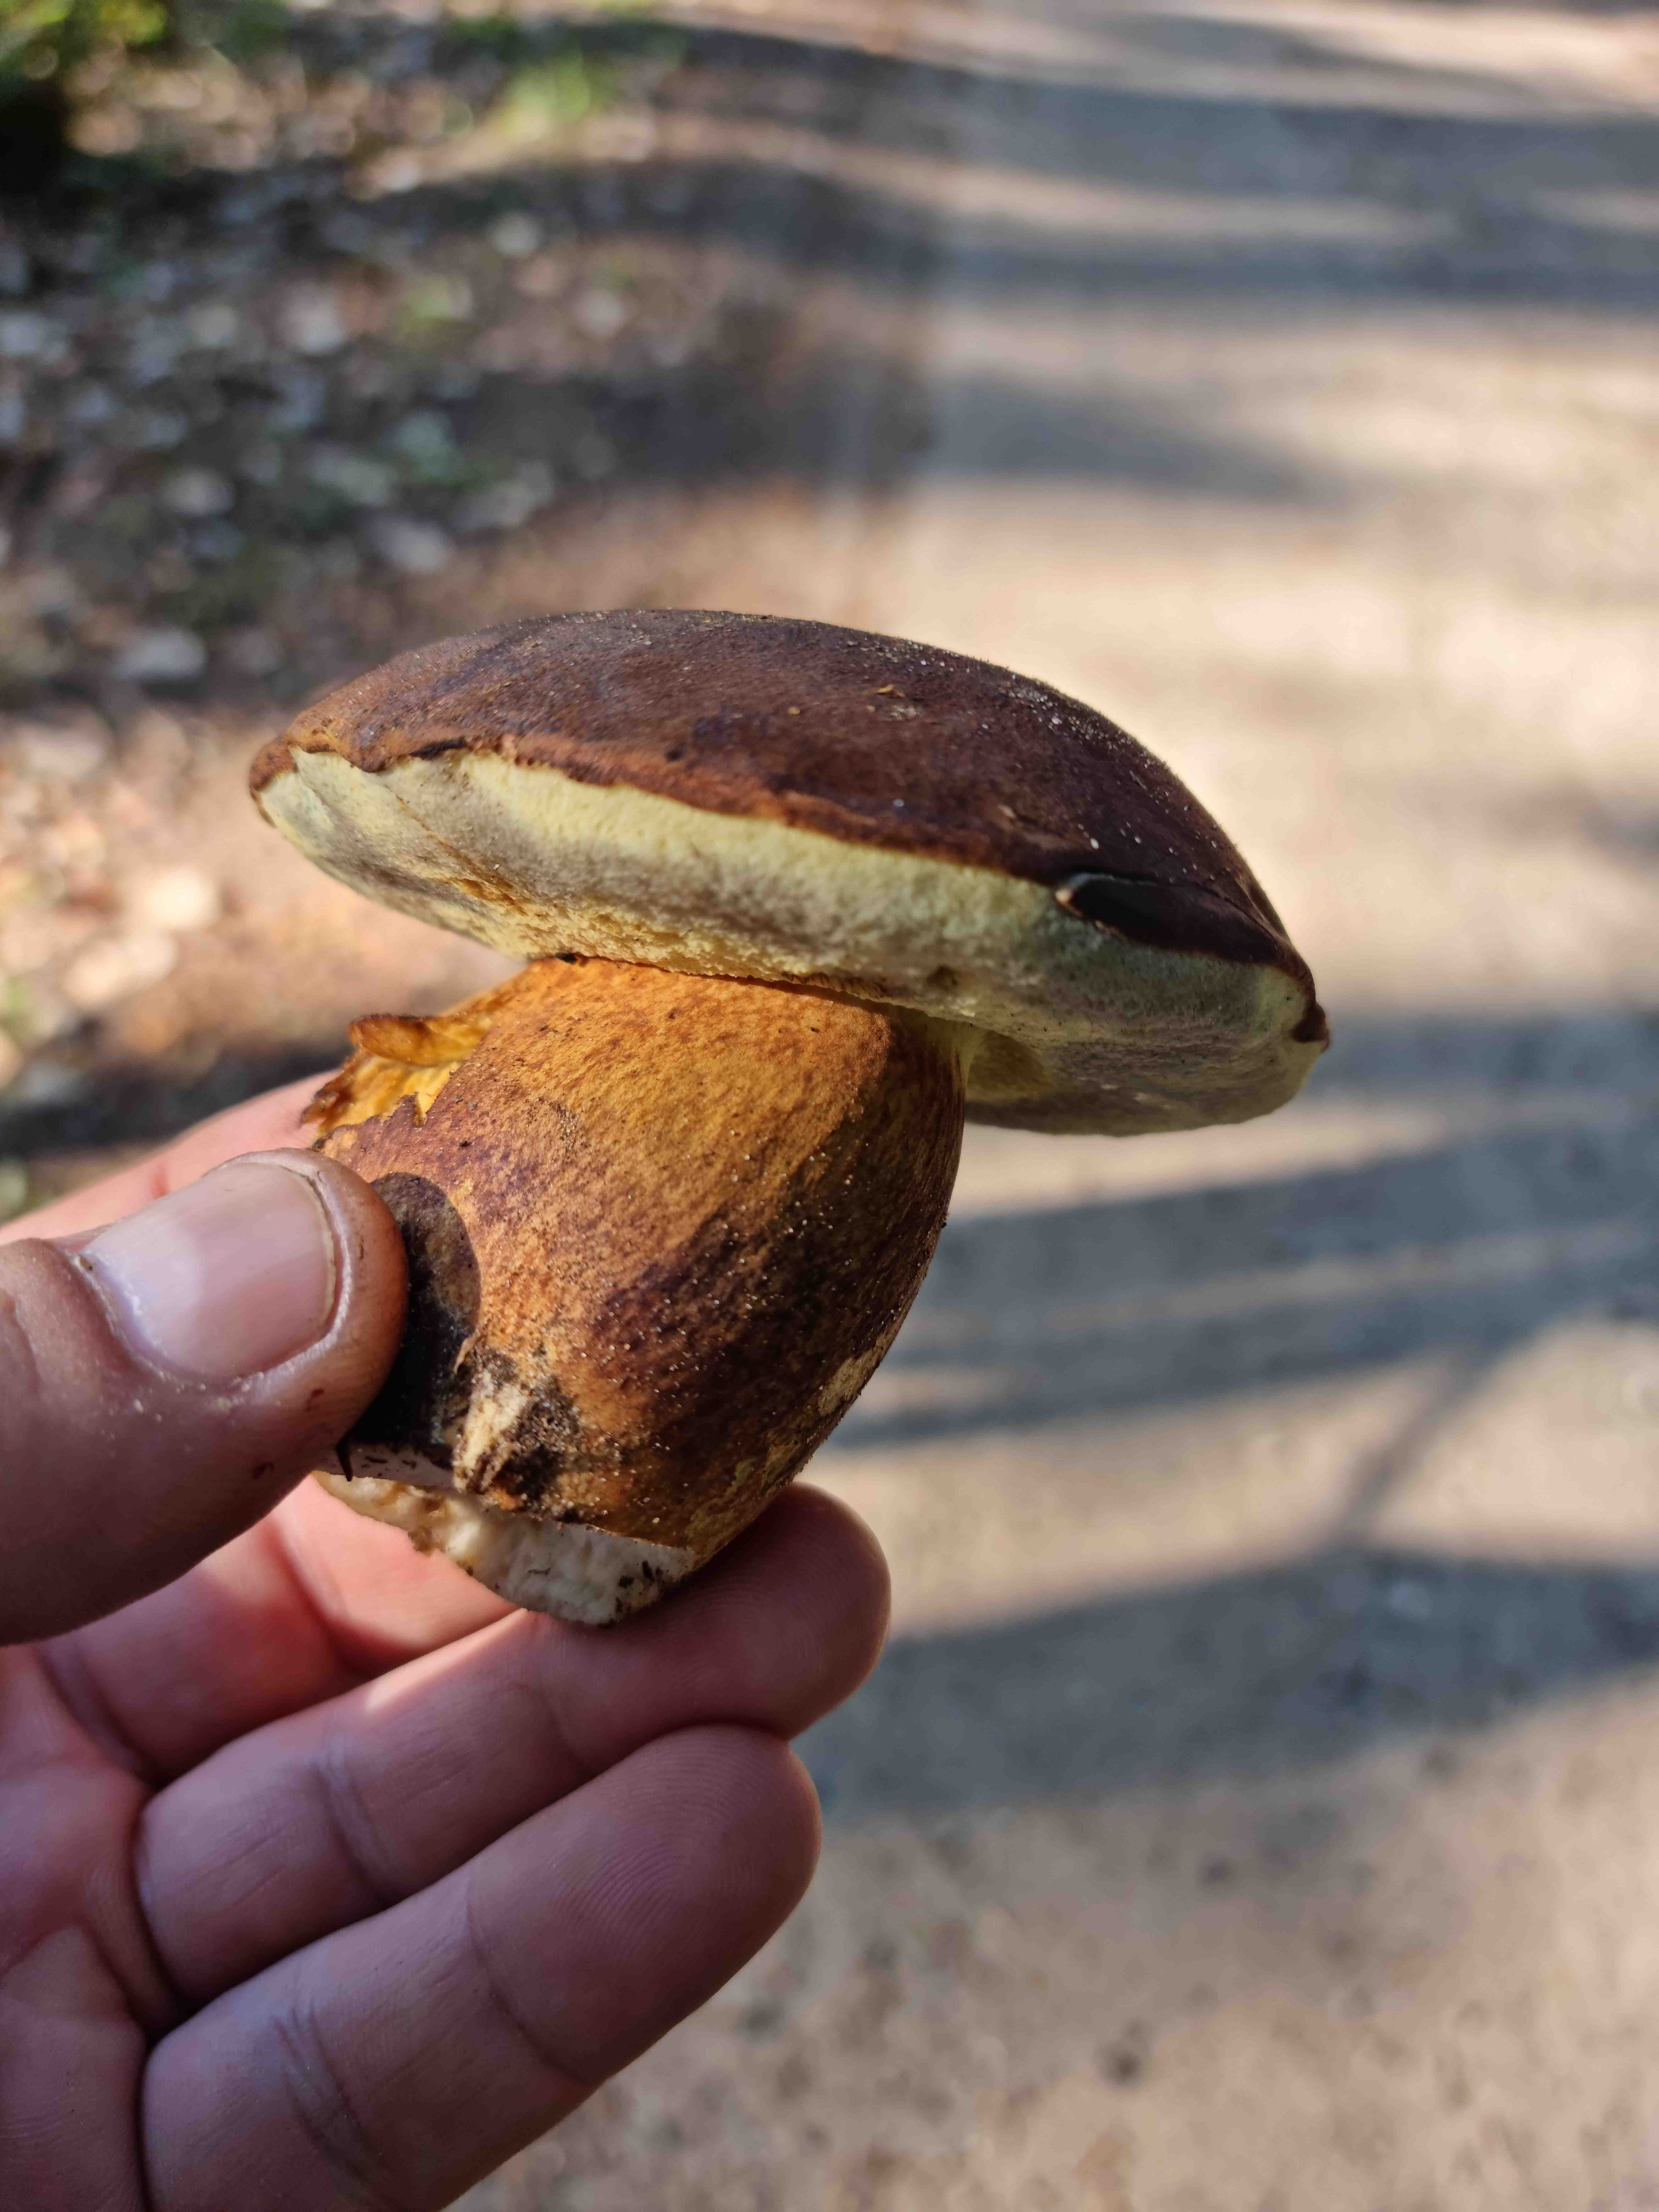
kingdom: Fungi
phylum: Basidiomycota
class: Agaricomycetes
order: Boletales
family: Boletaceae
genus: Imleria
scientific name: Imleria badia
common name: brunstokket rørhat
